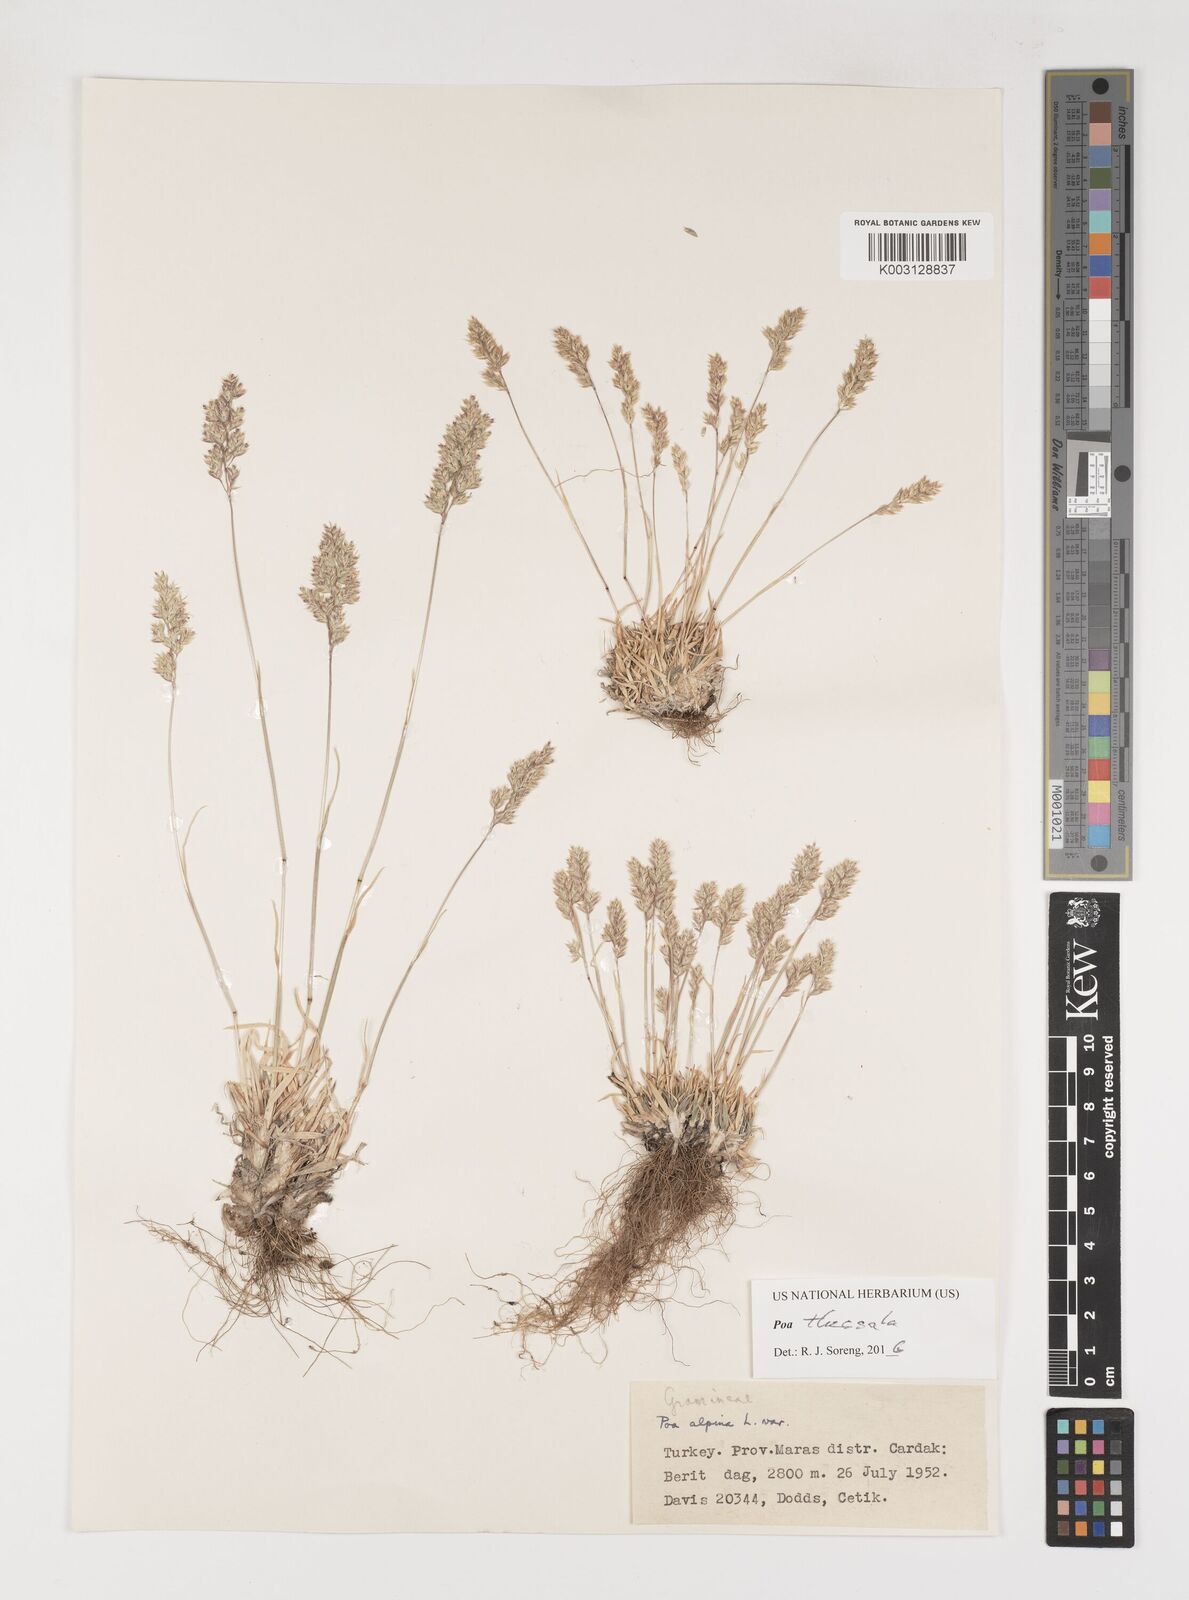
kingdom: Plantae
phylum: Tracheophyta
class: Liliopsida
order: Poales
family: Poaceae
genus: Poa
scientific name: Poa thessala
